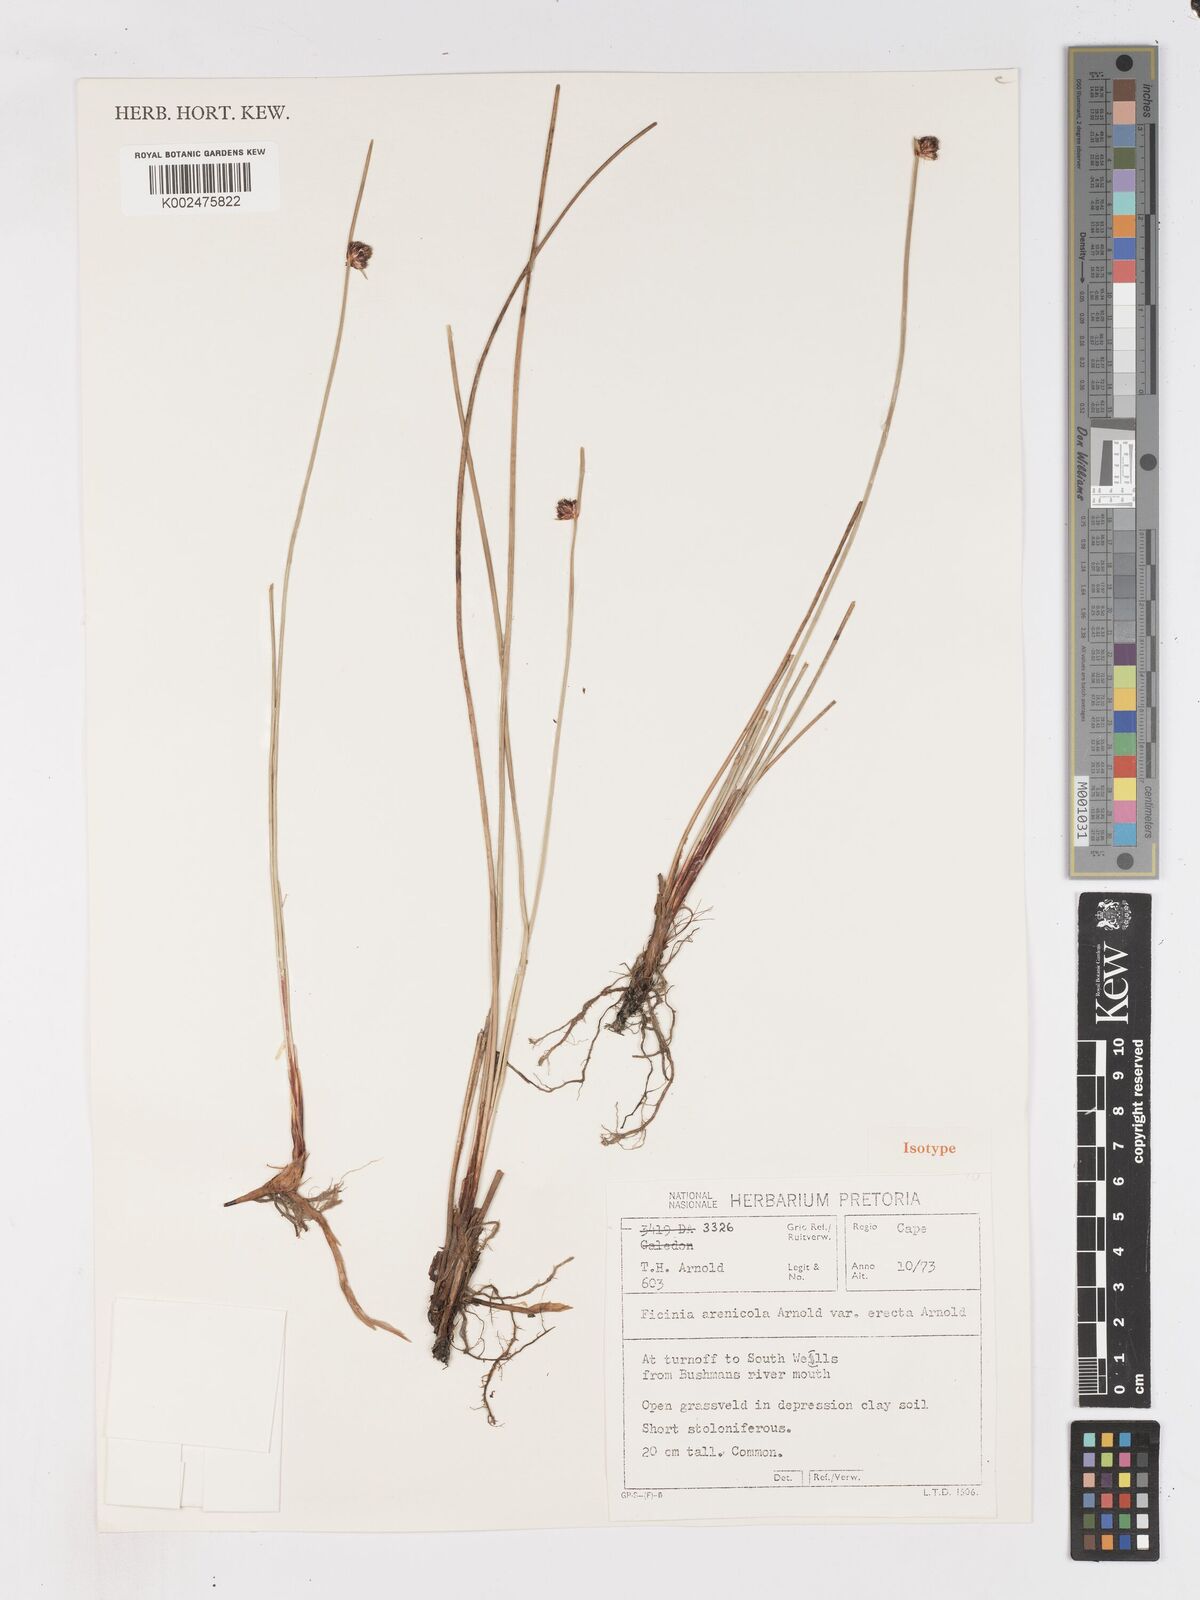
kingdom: Plantae
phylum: Tracheophyta
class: Liliopsida
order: Poales
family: Cyperaceae
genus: Ficinia
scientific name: Ficinia arenicola
